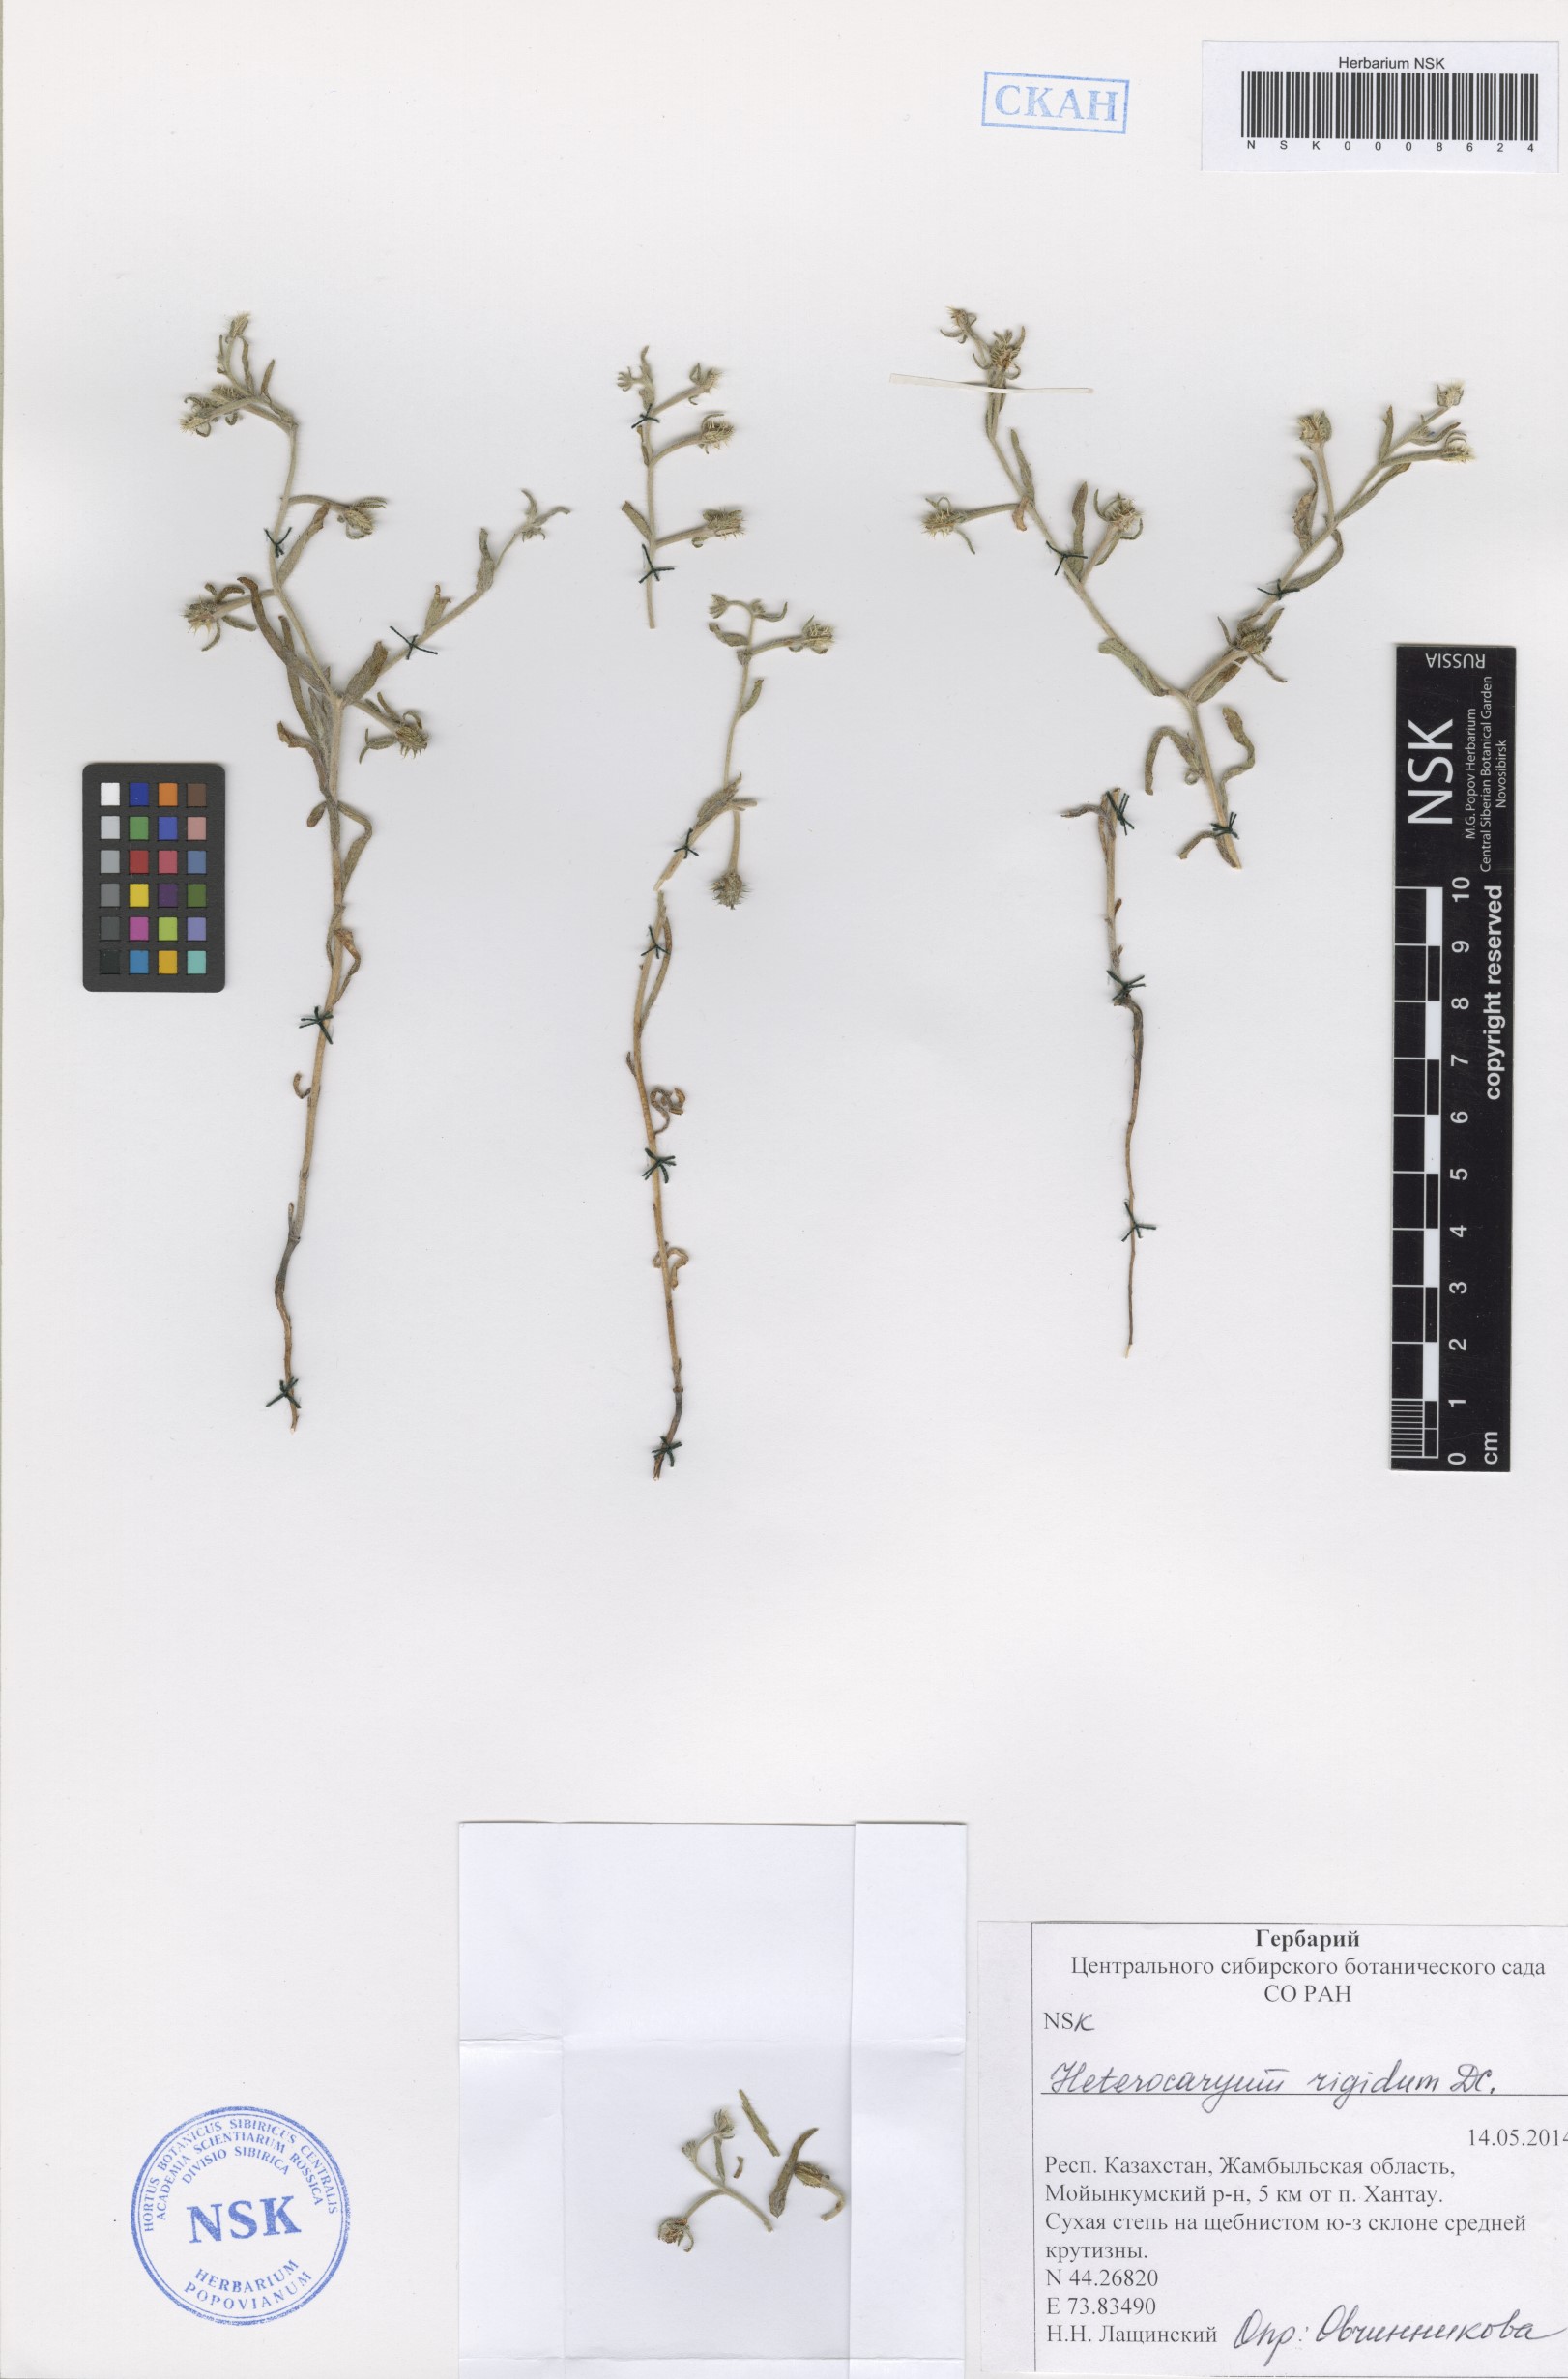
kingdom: Plantae
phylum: Tracheophyta
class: Magnoliopsida
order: Boraginales
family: Boraginaceae
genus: Pseudoheterocaryum
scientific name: Pseudoheterocaryum rigidum
